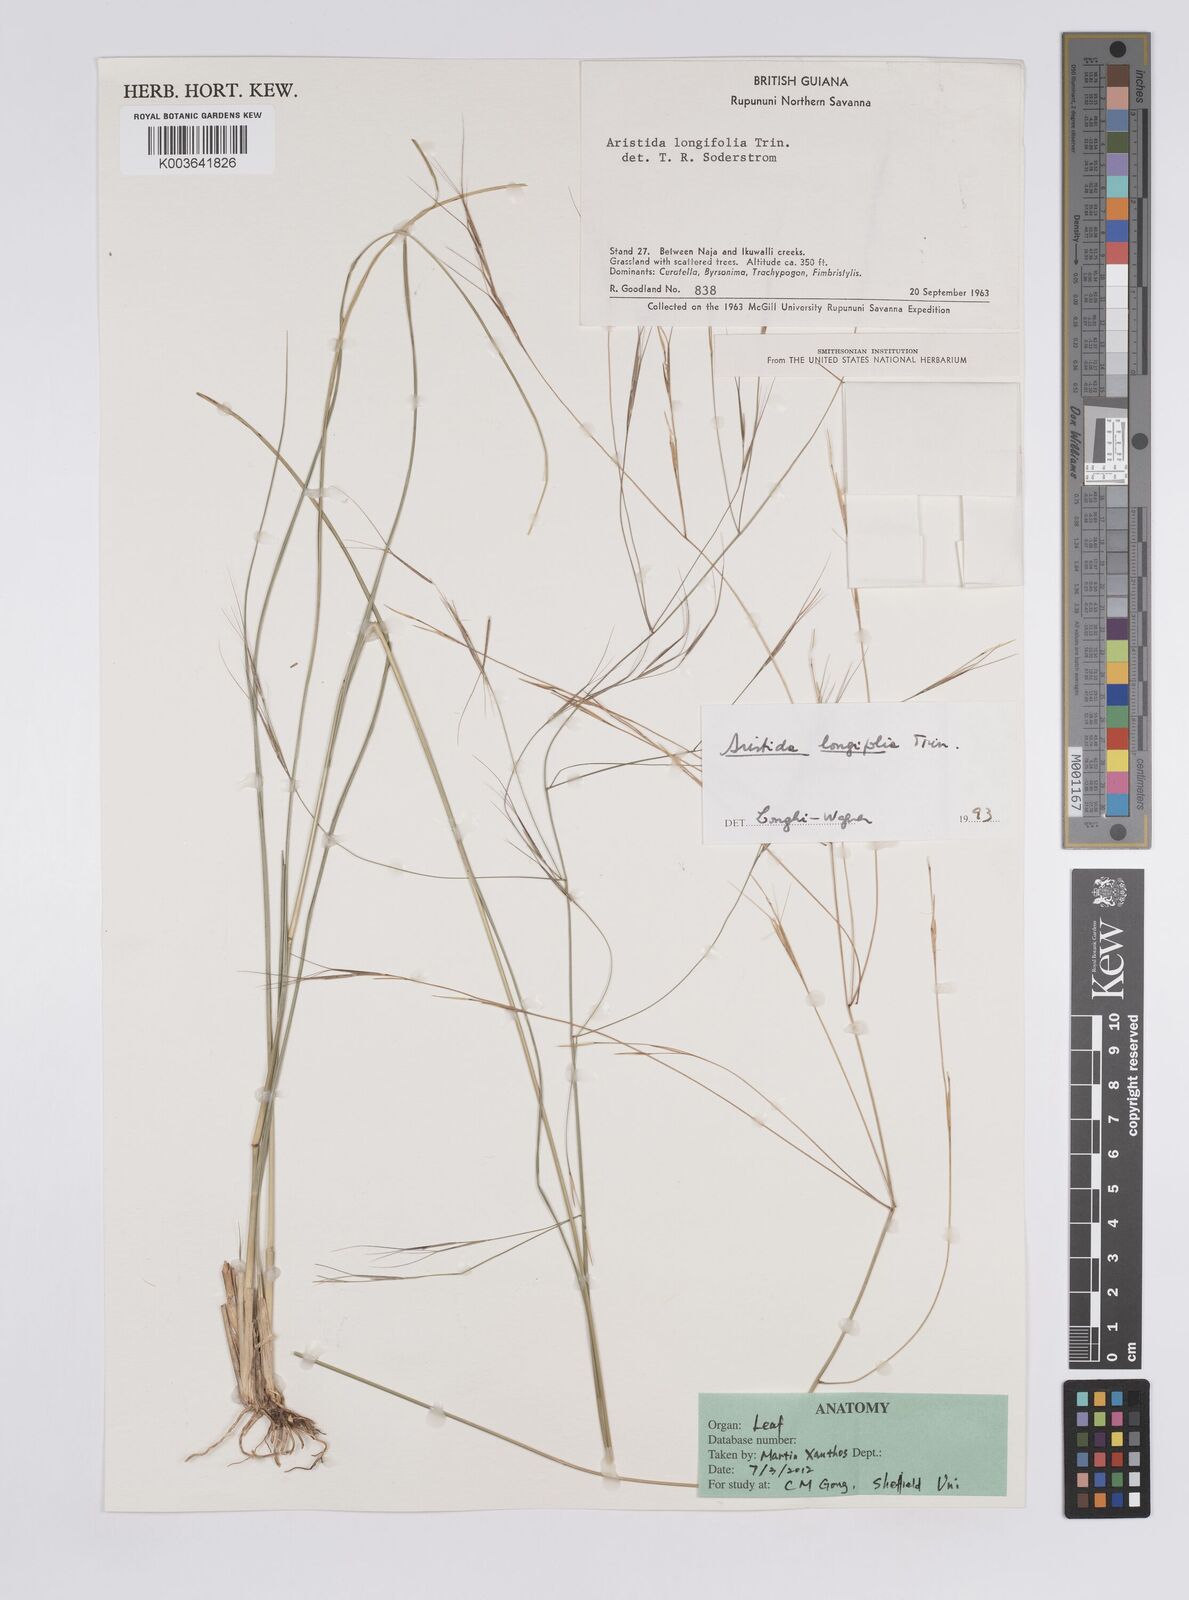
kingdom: Plantae
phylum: Tracheophyta
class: Liliopsida
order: Poales
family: Poaceae
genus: Aristida
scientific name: Aristida longifolia
